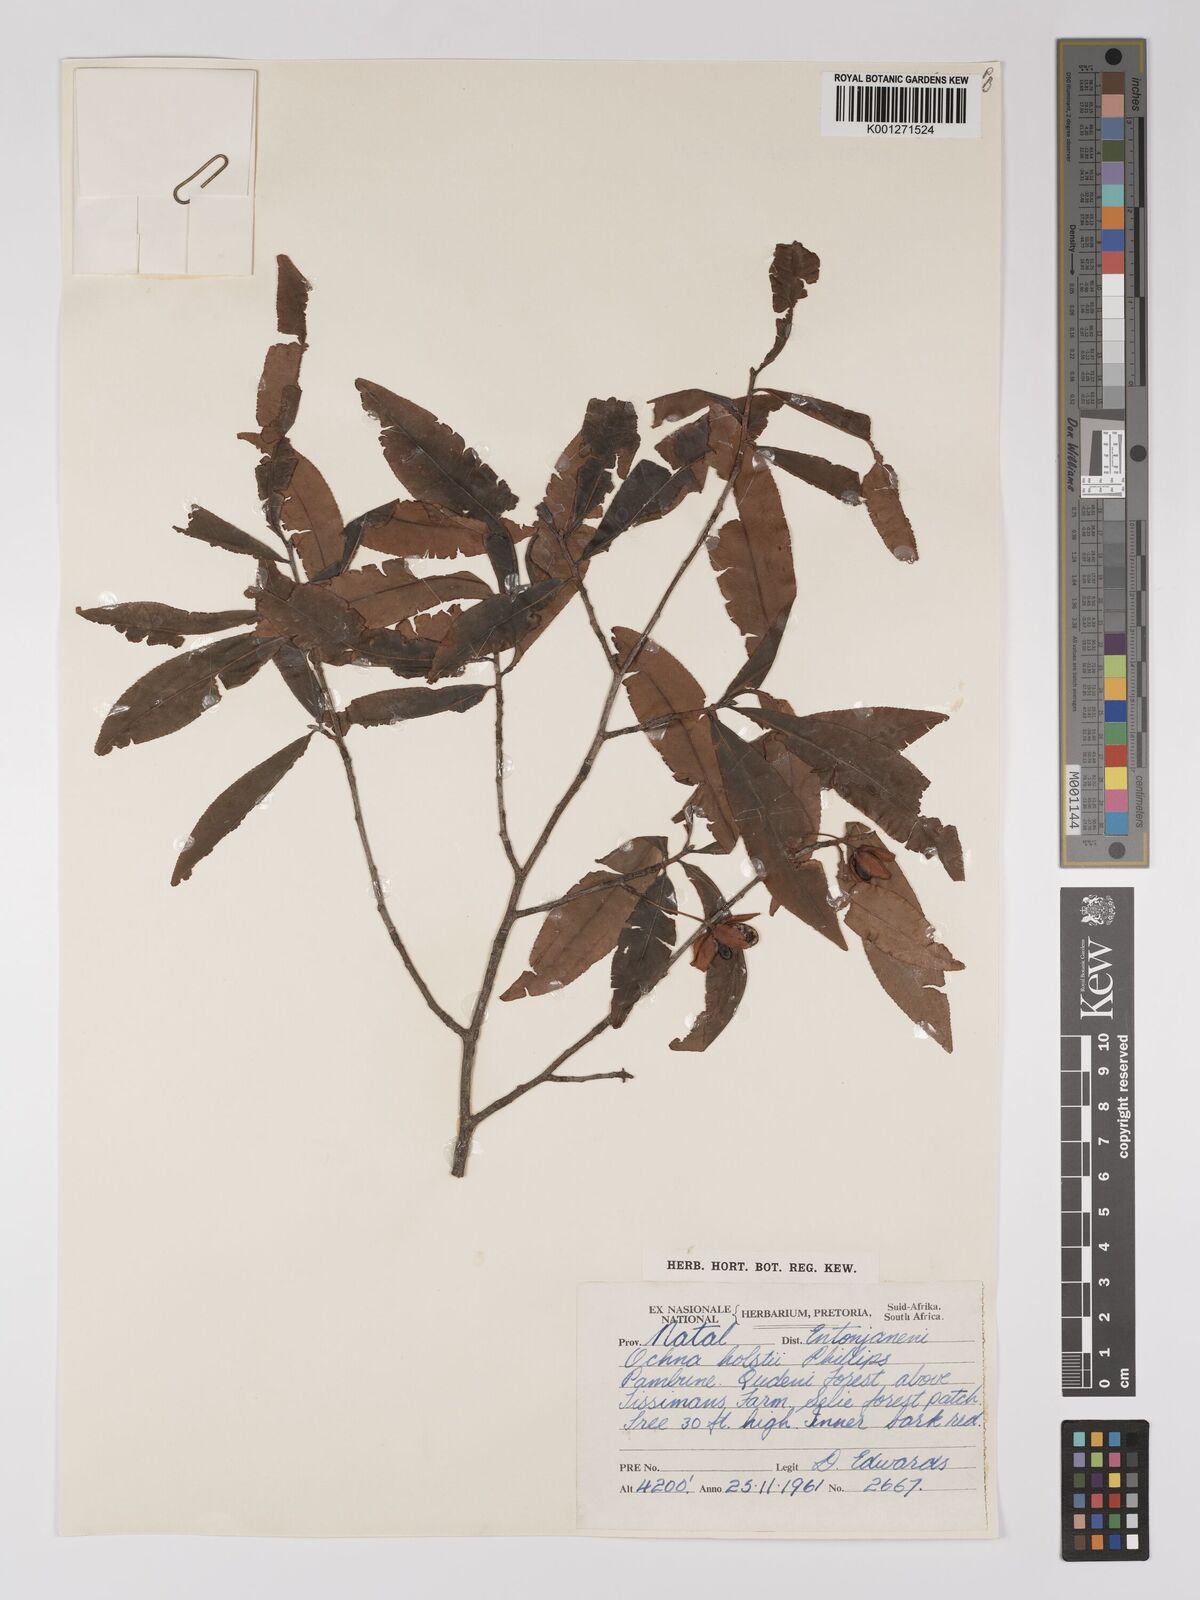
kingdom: Plantae
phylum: Tracheophyta
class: Magnoliopsida
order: Malpighiales
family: Ochnaceae
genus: Ochna
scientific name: Ochna holstii
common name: Red ironwood
